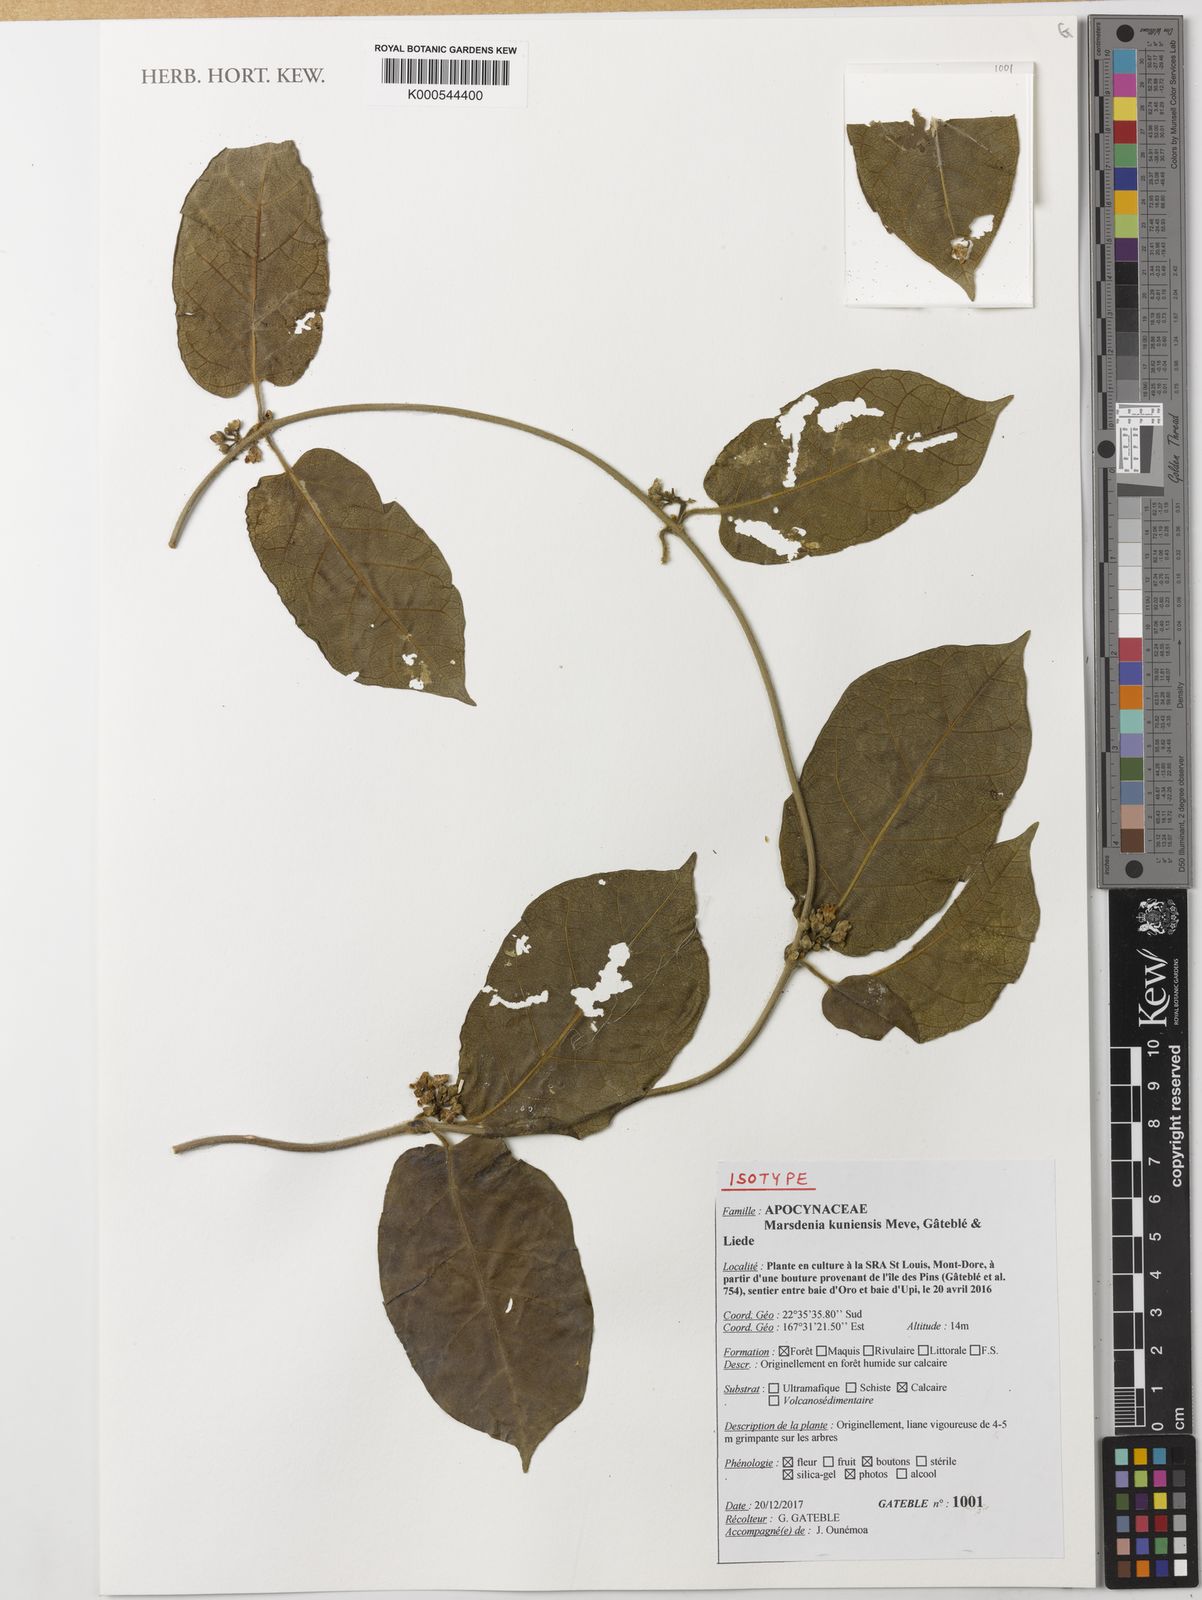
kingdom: Plantae
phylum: Tracheophyta
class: Magnoliopsida
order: Gentianales
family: Apocynaceae
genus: Marsdenia
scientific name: Marsdenia
